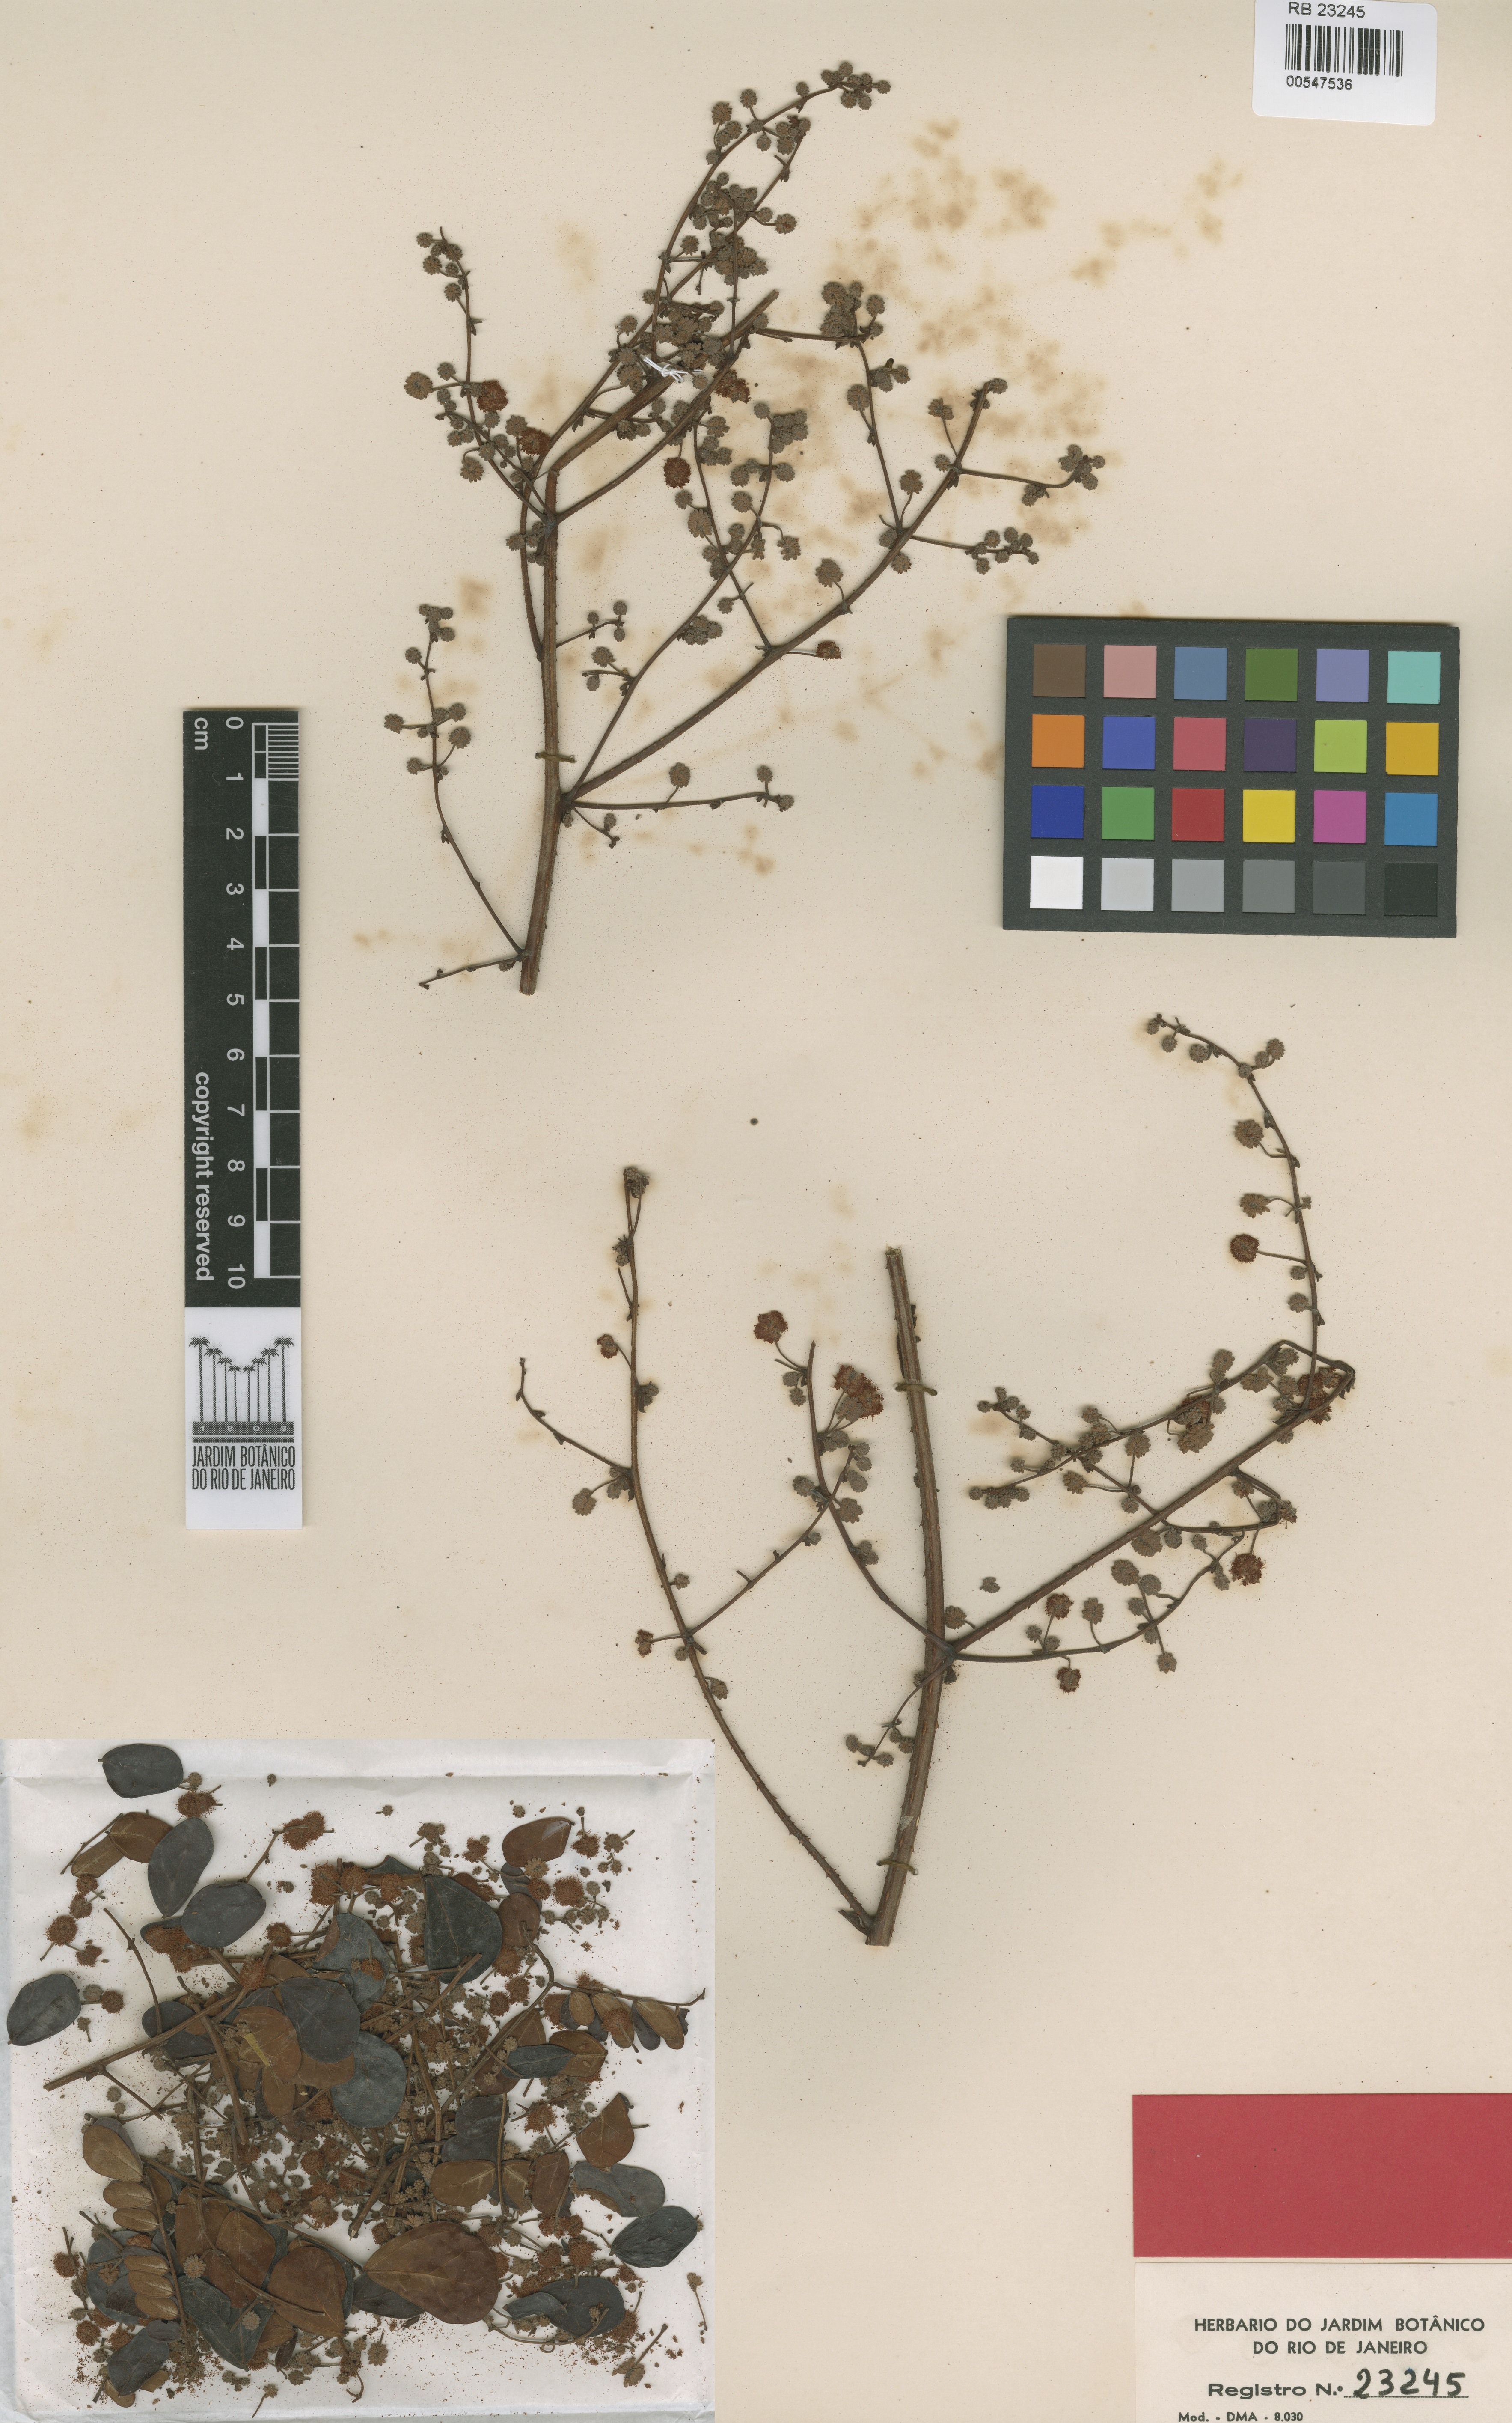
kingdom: Plantae
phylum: Tracheophyta
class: Magnoliopsida
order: Fabales
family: Fabaceae
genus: Mimosa
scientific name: Mimosa rufescens
